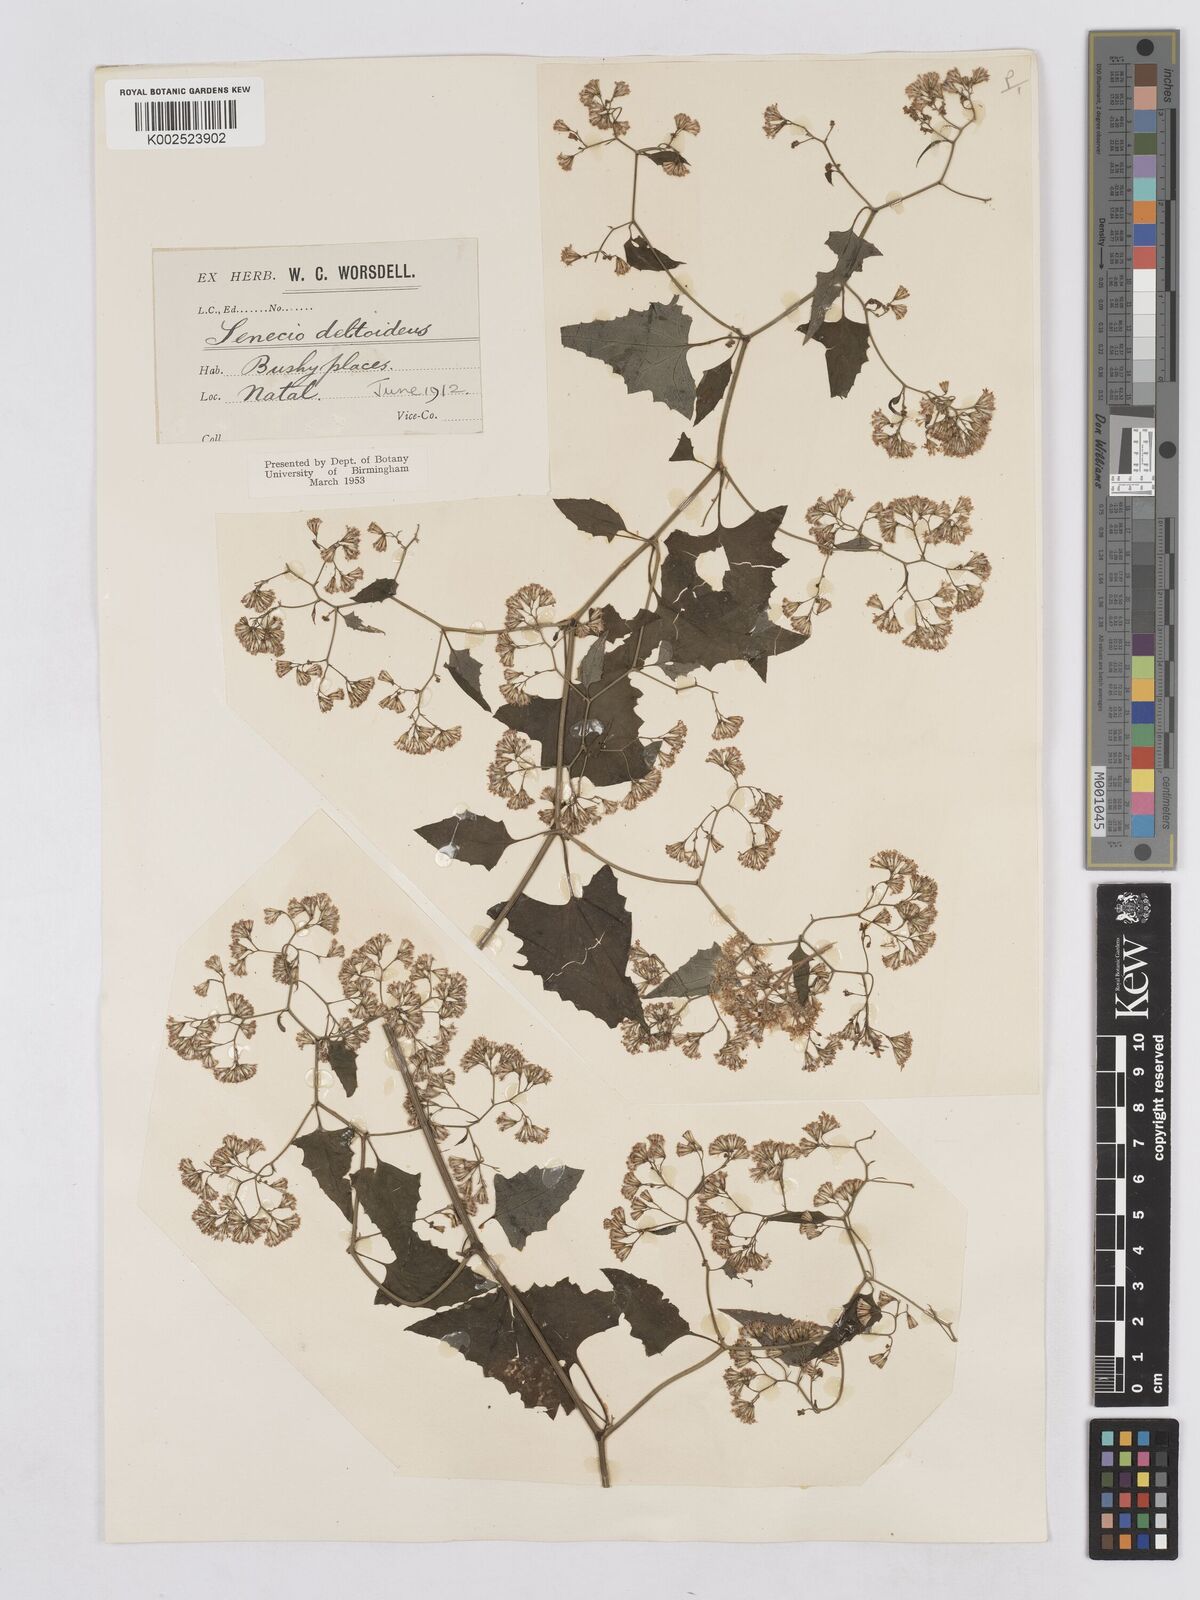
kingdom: Plantae
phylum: Tracheophyta
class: Magnoliopsida
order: Asterales
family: Asteraceae
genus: Senecio
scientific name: Senecio deltoideus
